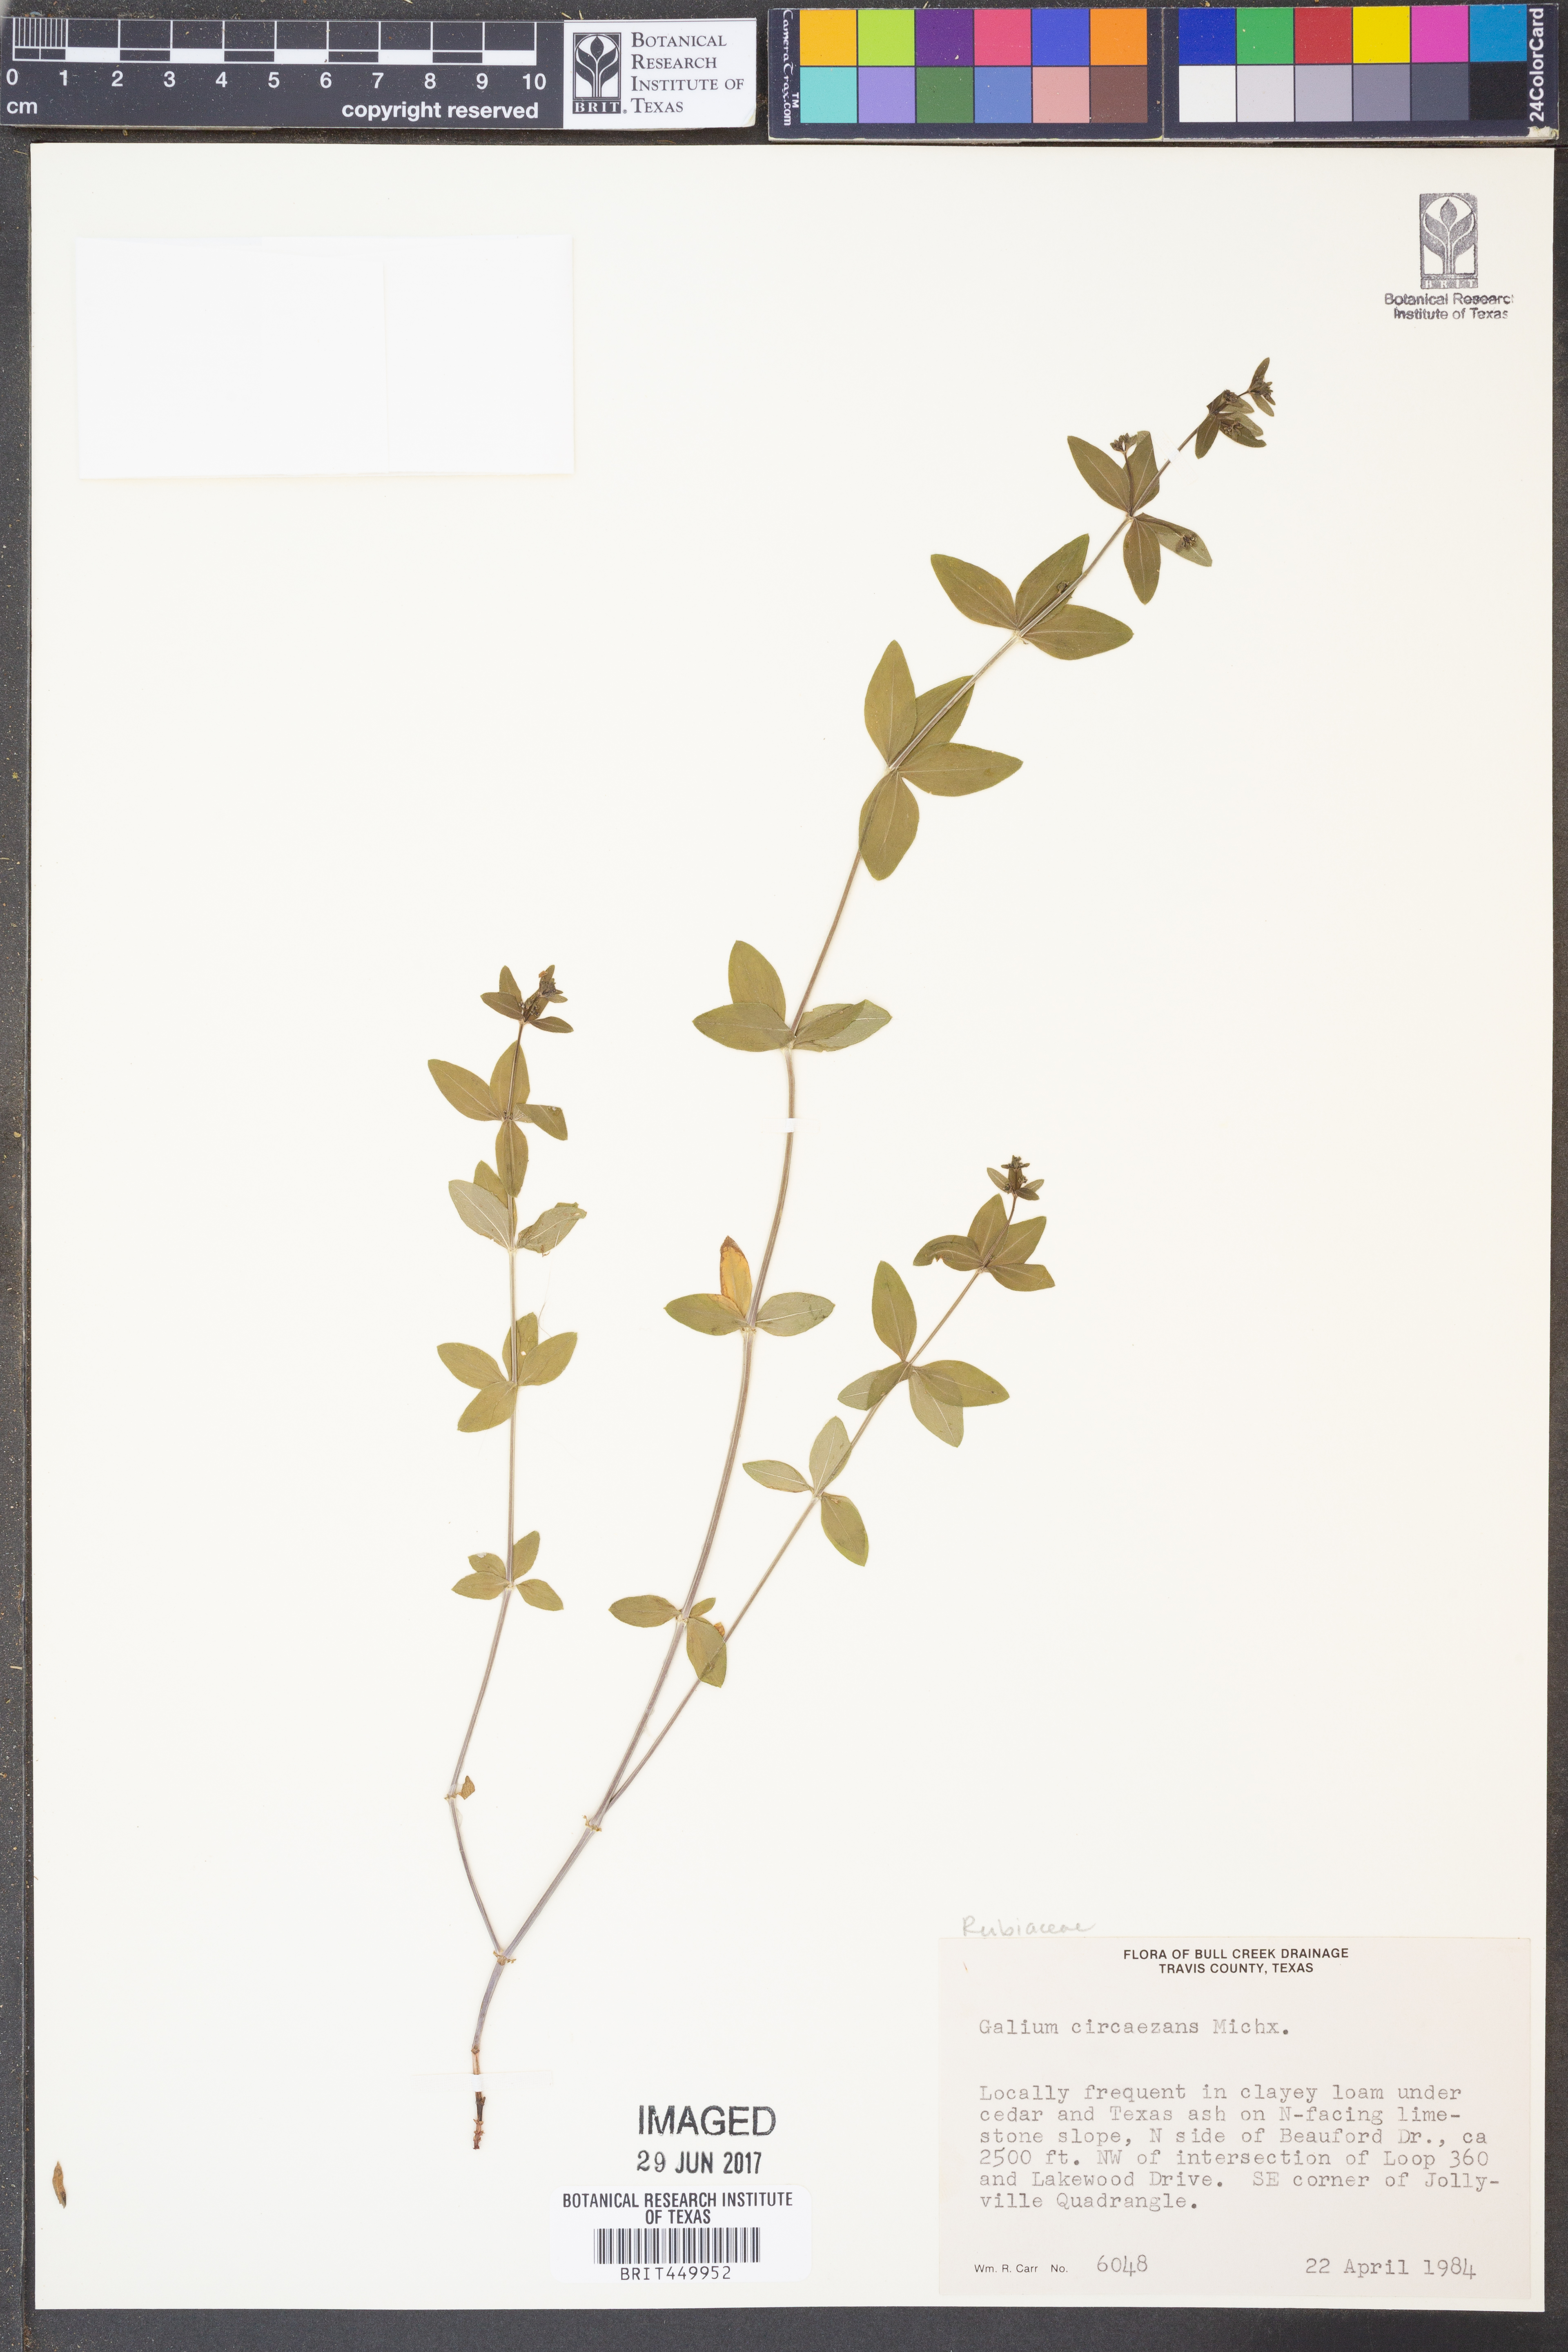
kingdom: Plantae
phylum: Tracheophyta
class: Magnoliopsida
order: Gentianales
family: Rubiaceae
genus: Galium
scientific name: Galium circaezans
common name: Forest bedstraw
